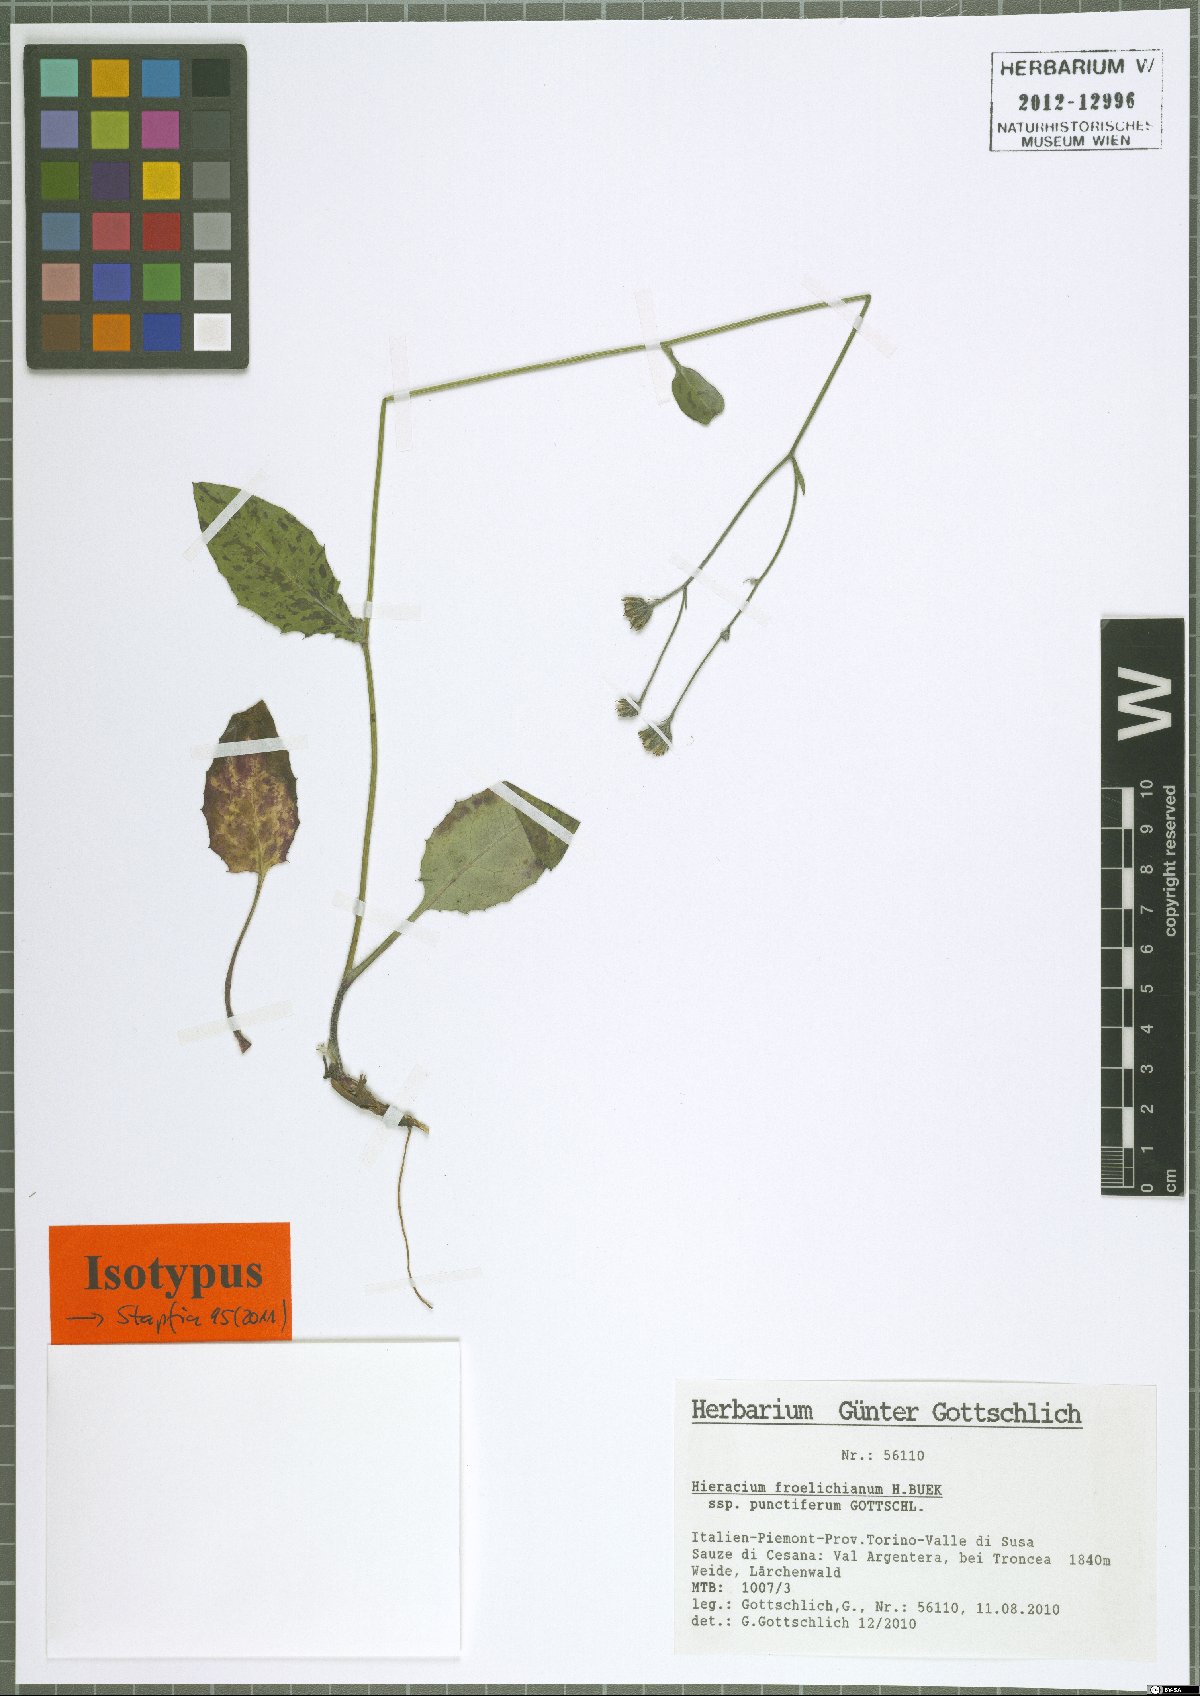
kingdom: Plantae
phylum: Tracheophyta
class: Magnoliopsida
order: Asterales
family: Asteraceae
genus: Hieracium
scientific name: Hieracium froelichianum
